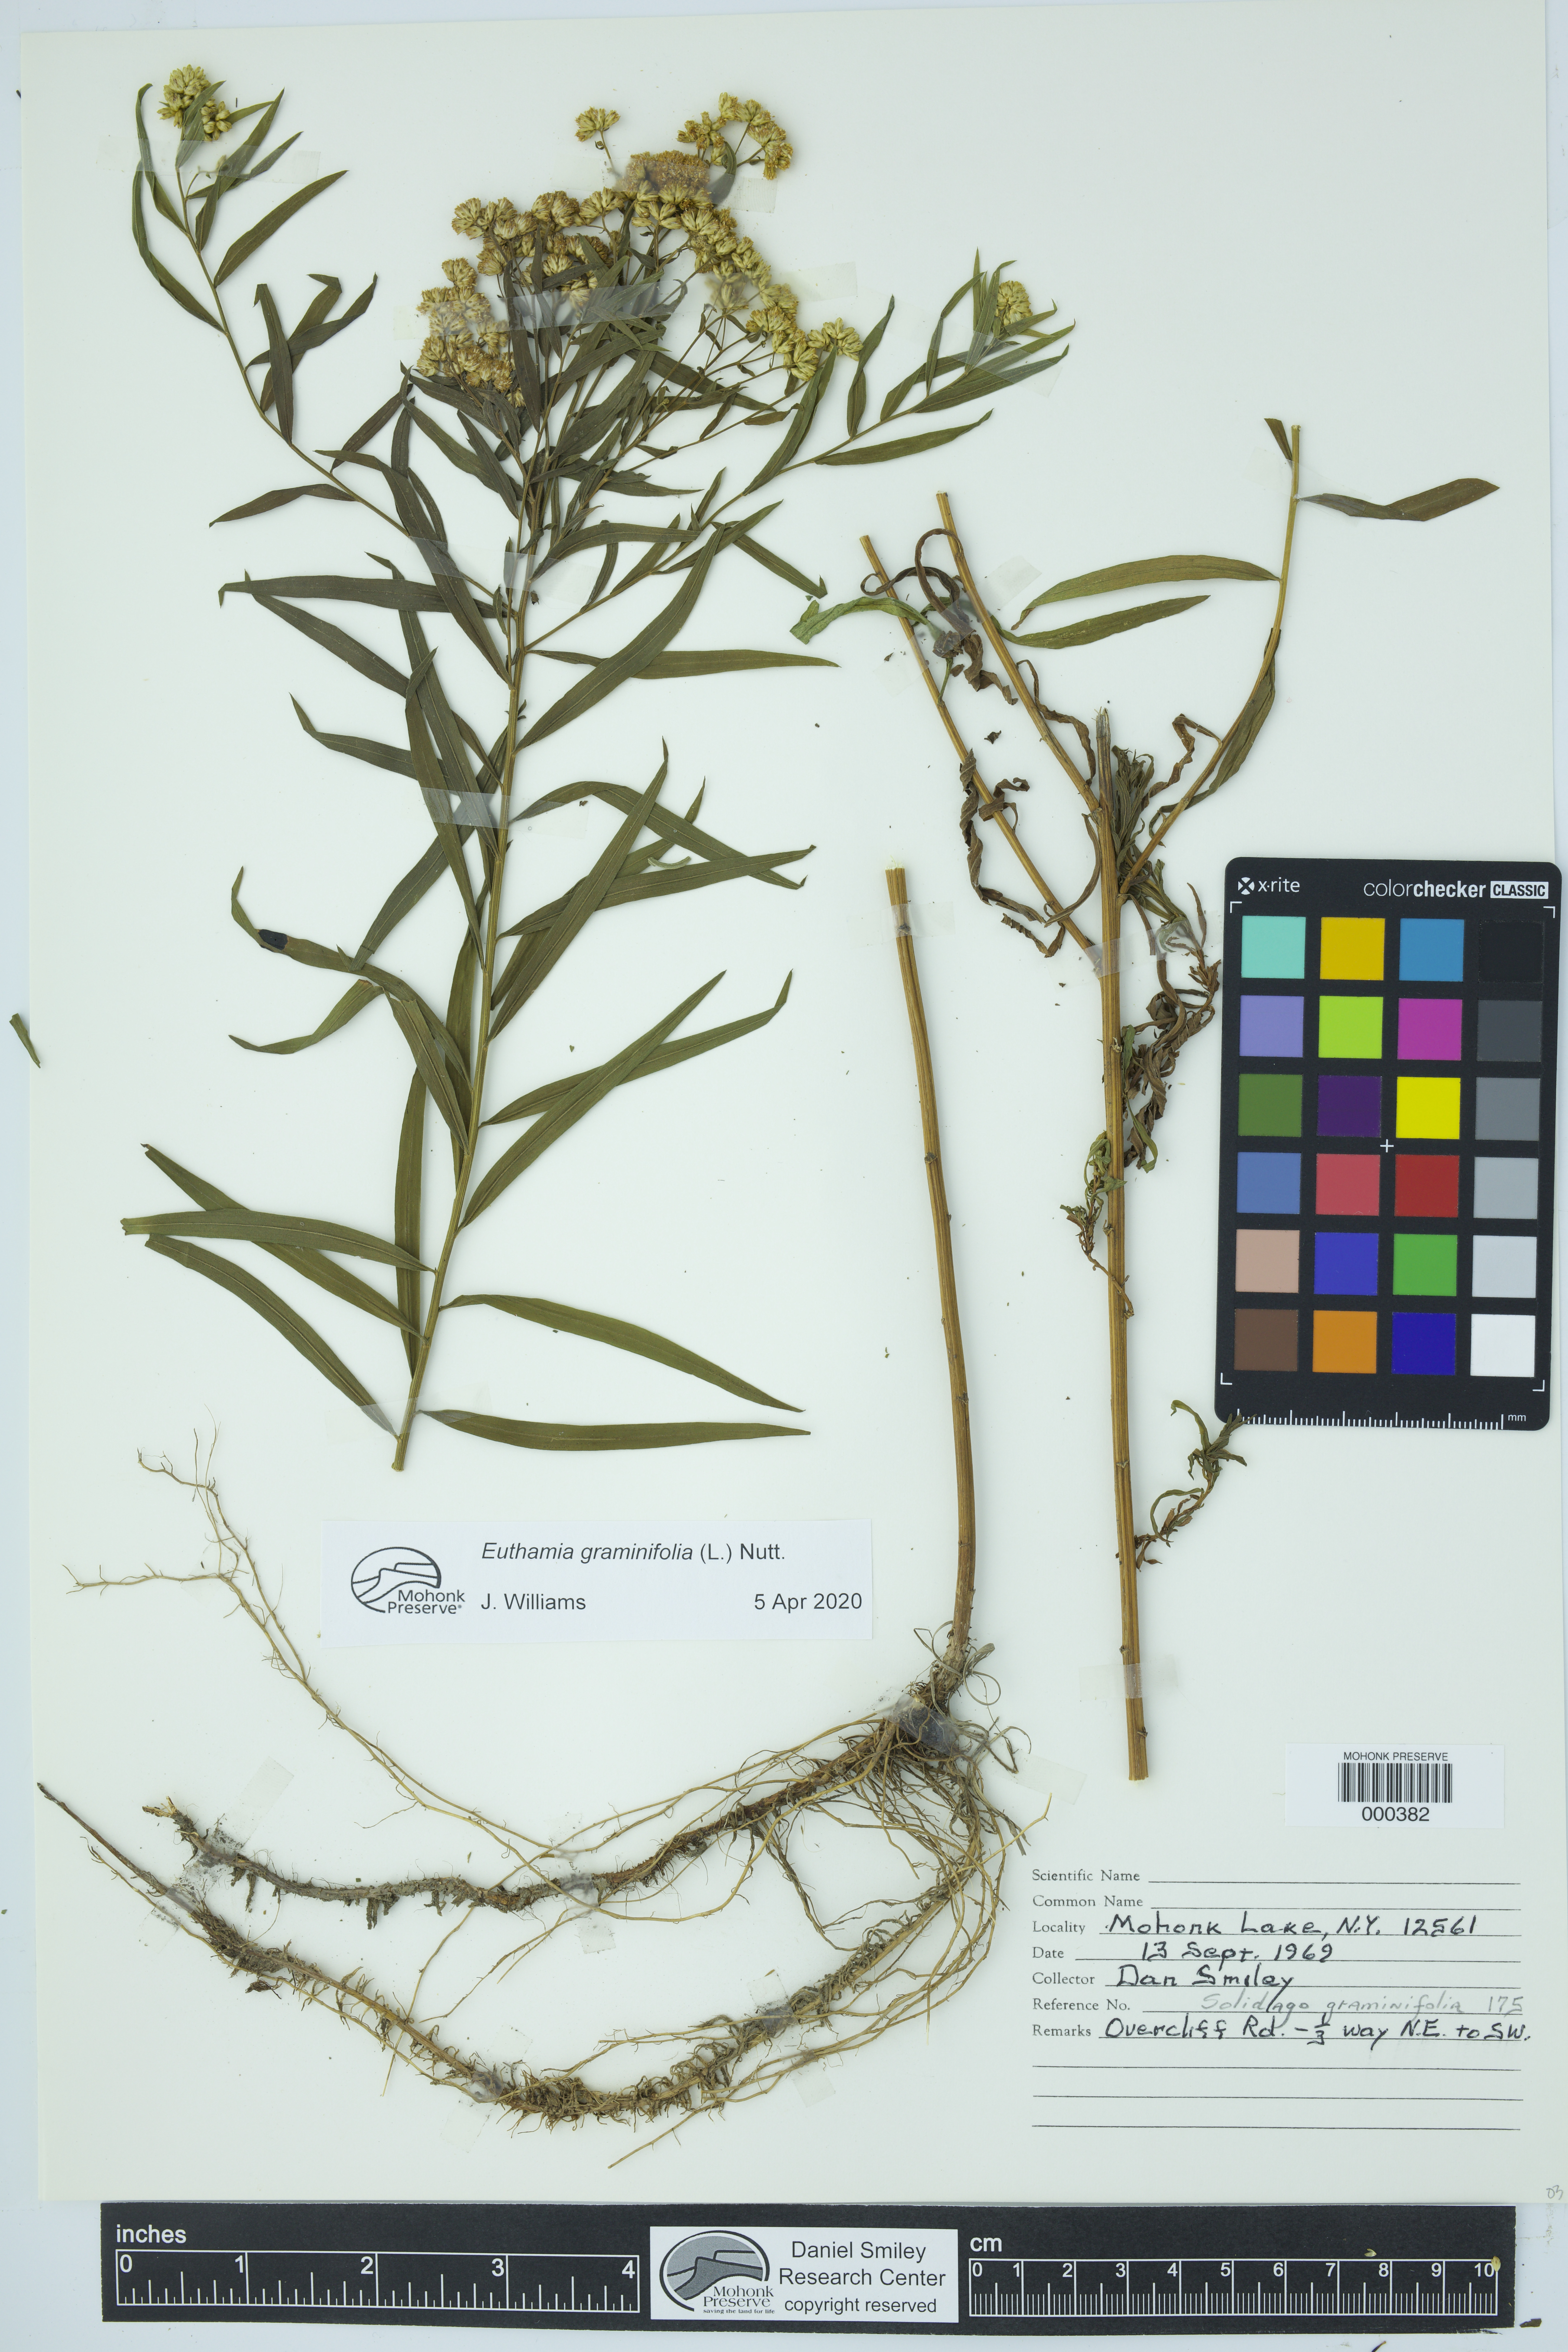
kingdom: Plantae
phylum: Tracheophyta
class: Magnoliopsida
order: Asterales
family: Asteraceae
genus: Euthamia
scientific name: Euthamia graminifolia
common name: Common goldentop
